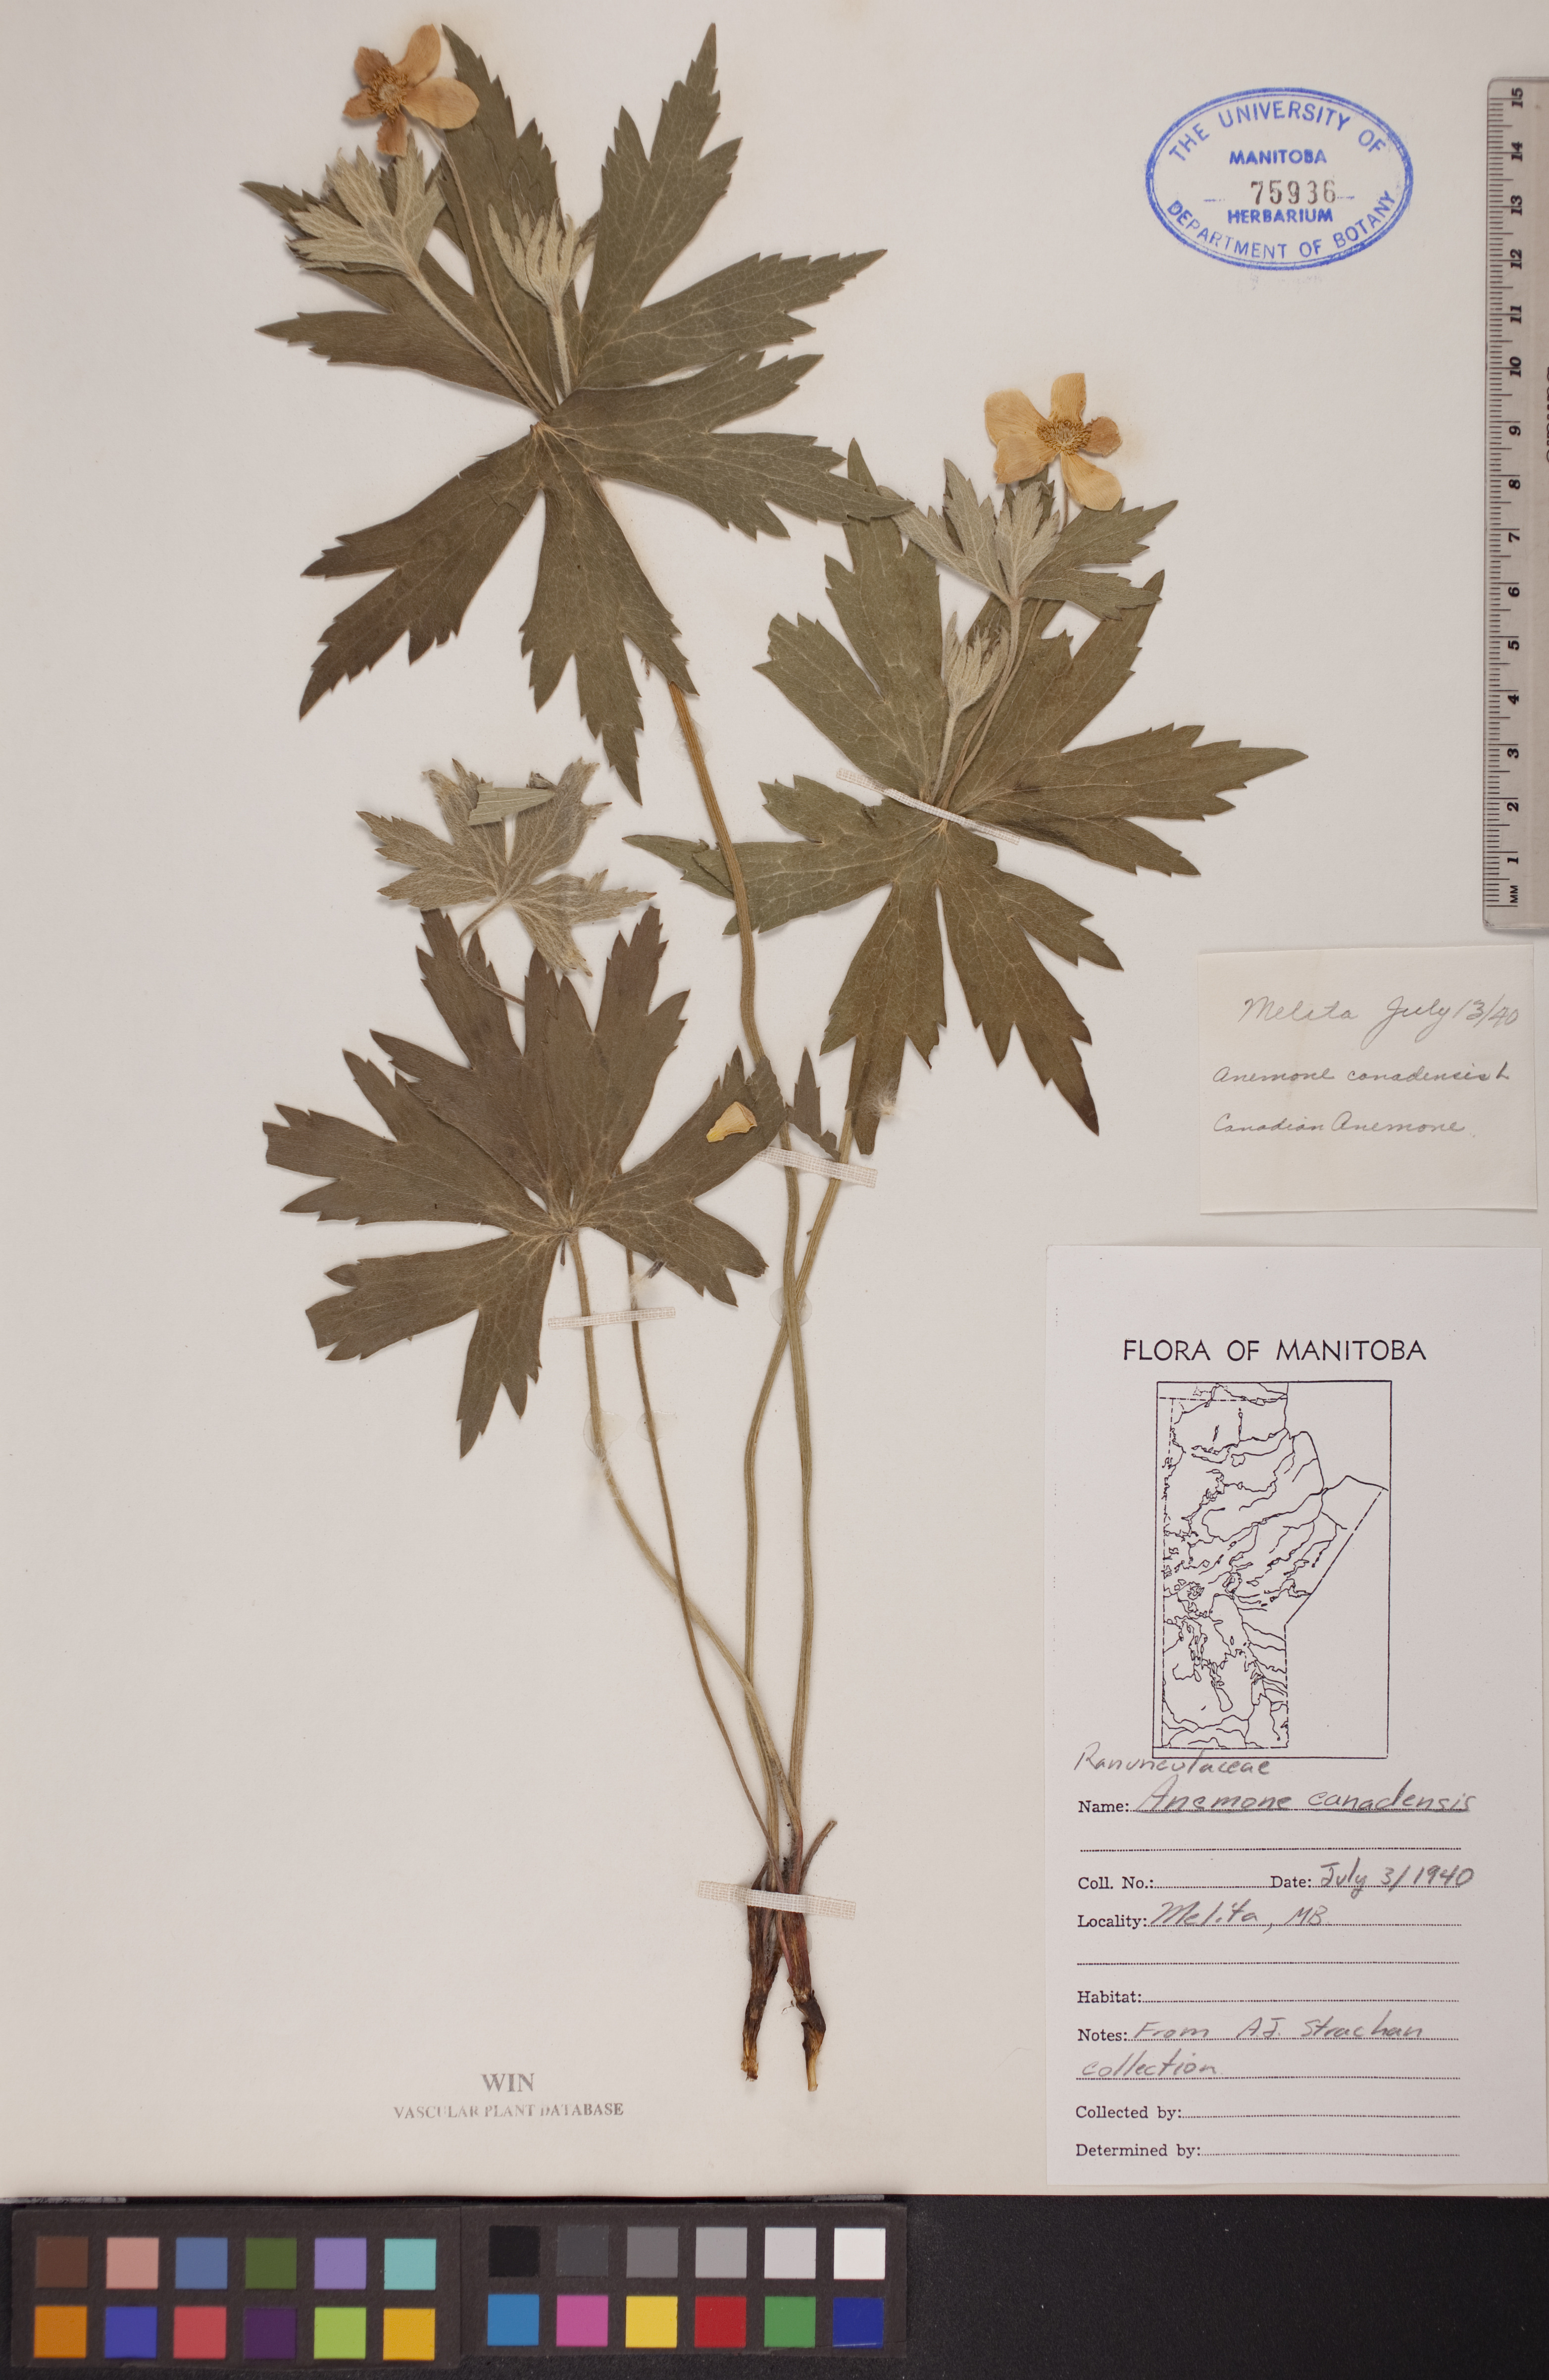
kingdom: Plantae
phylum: Tracheophyta
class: Magnoliopsida
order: Ranunculales
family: Ranunculaceae
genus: Anemonastrum
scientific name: Anemonastrum canadense
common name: Canada anemone
